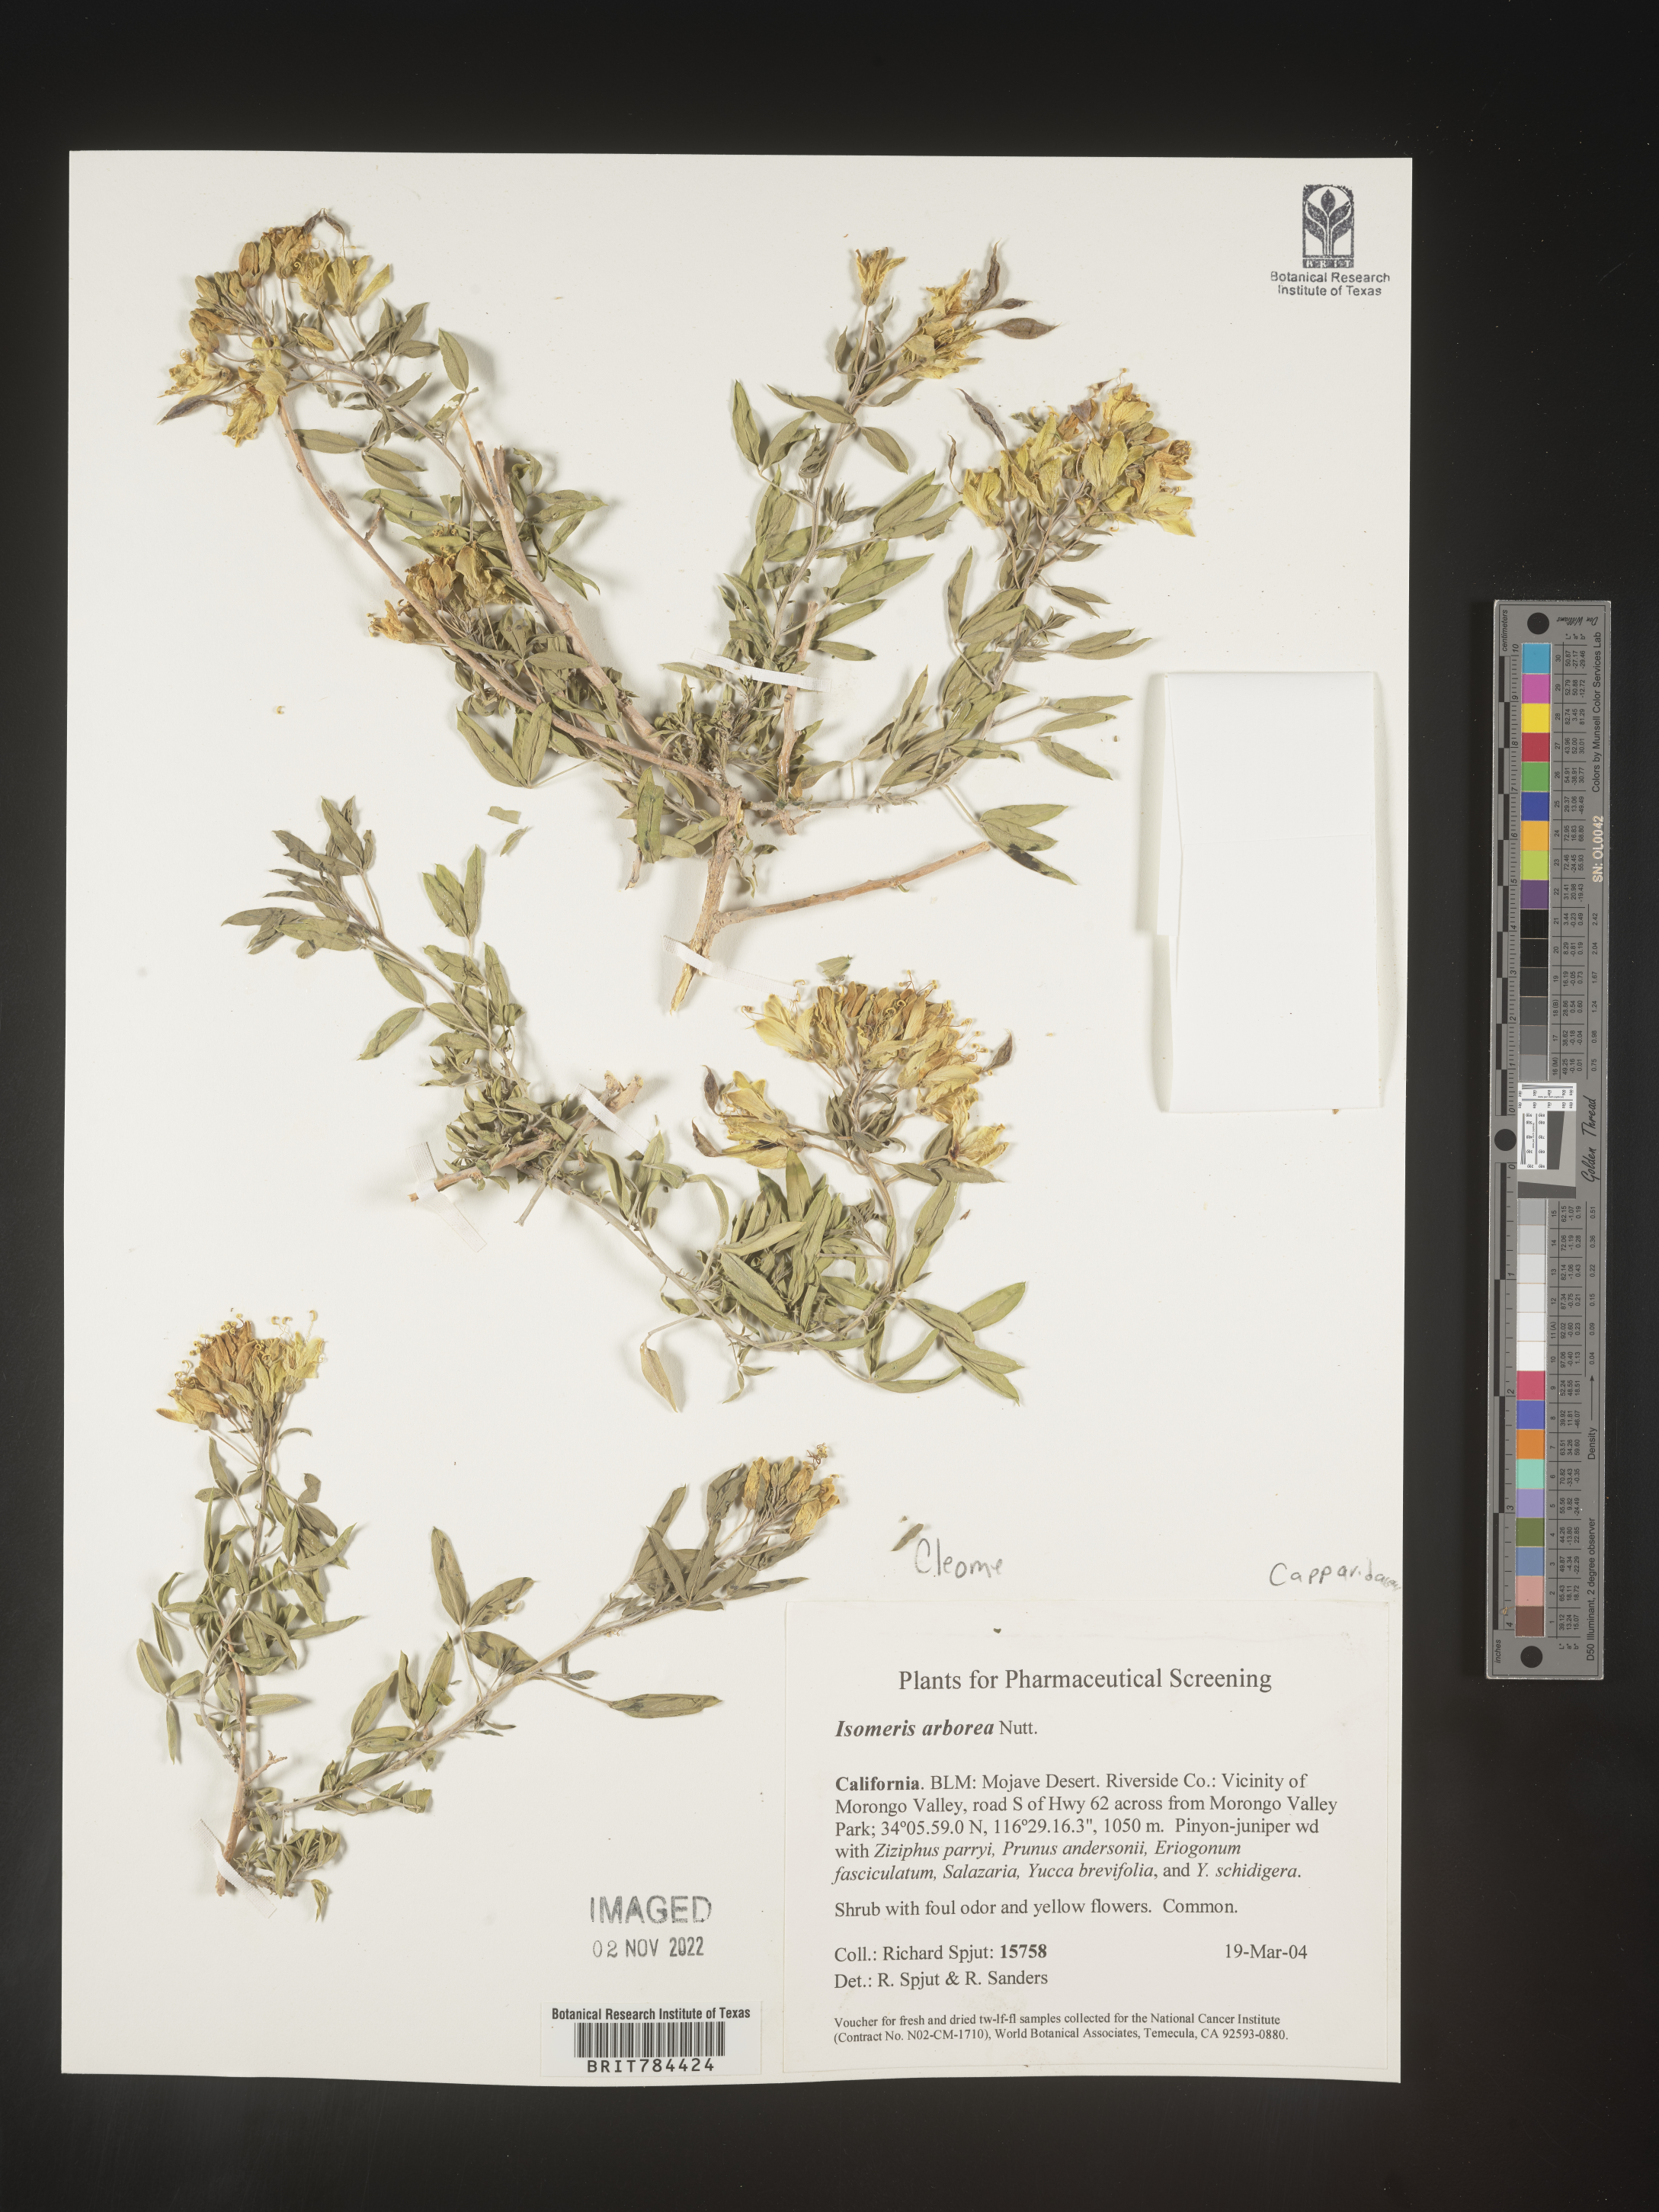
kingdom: Animalia
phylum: Arthropoda
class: Insecta
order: Hymenoptera
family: Ichneumonidae
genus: Isomeris
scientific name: Isomeris
